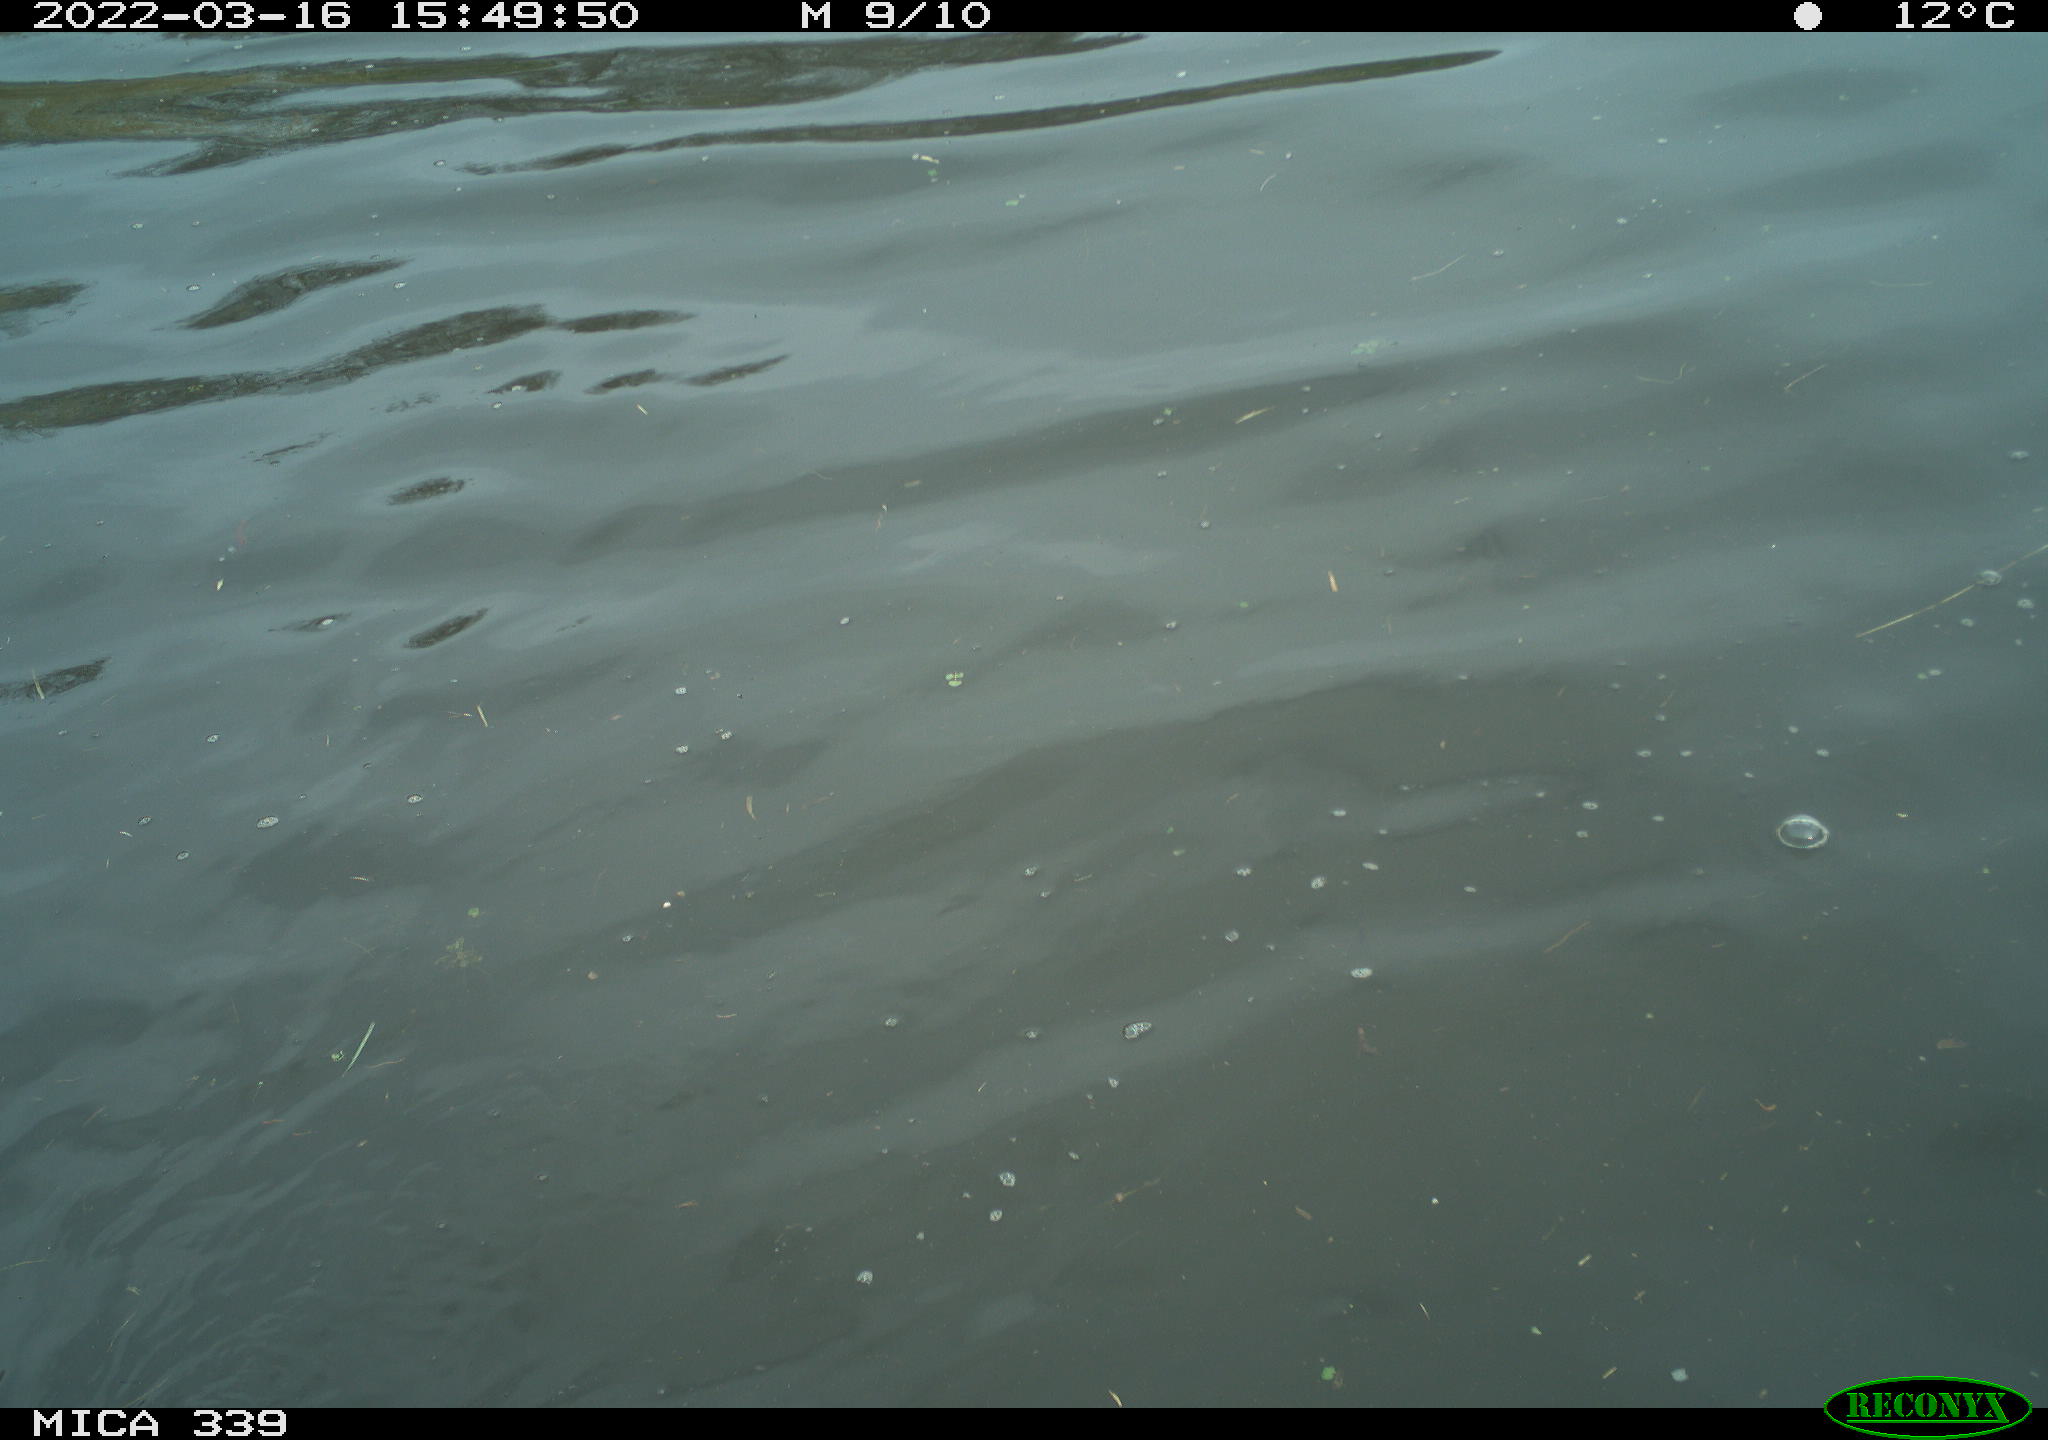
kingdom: Animalia
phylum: Chordata
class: Aves
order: Gruiformes
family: Rallidae
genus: Fulica
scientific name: Fulica atra
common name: Eurasian coot
